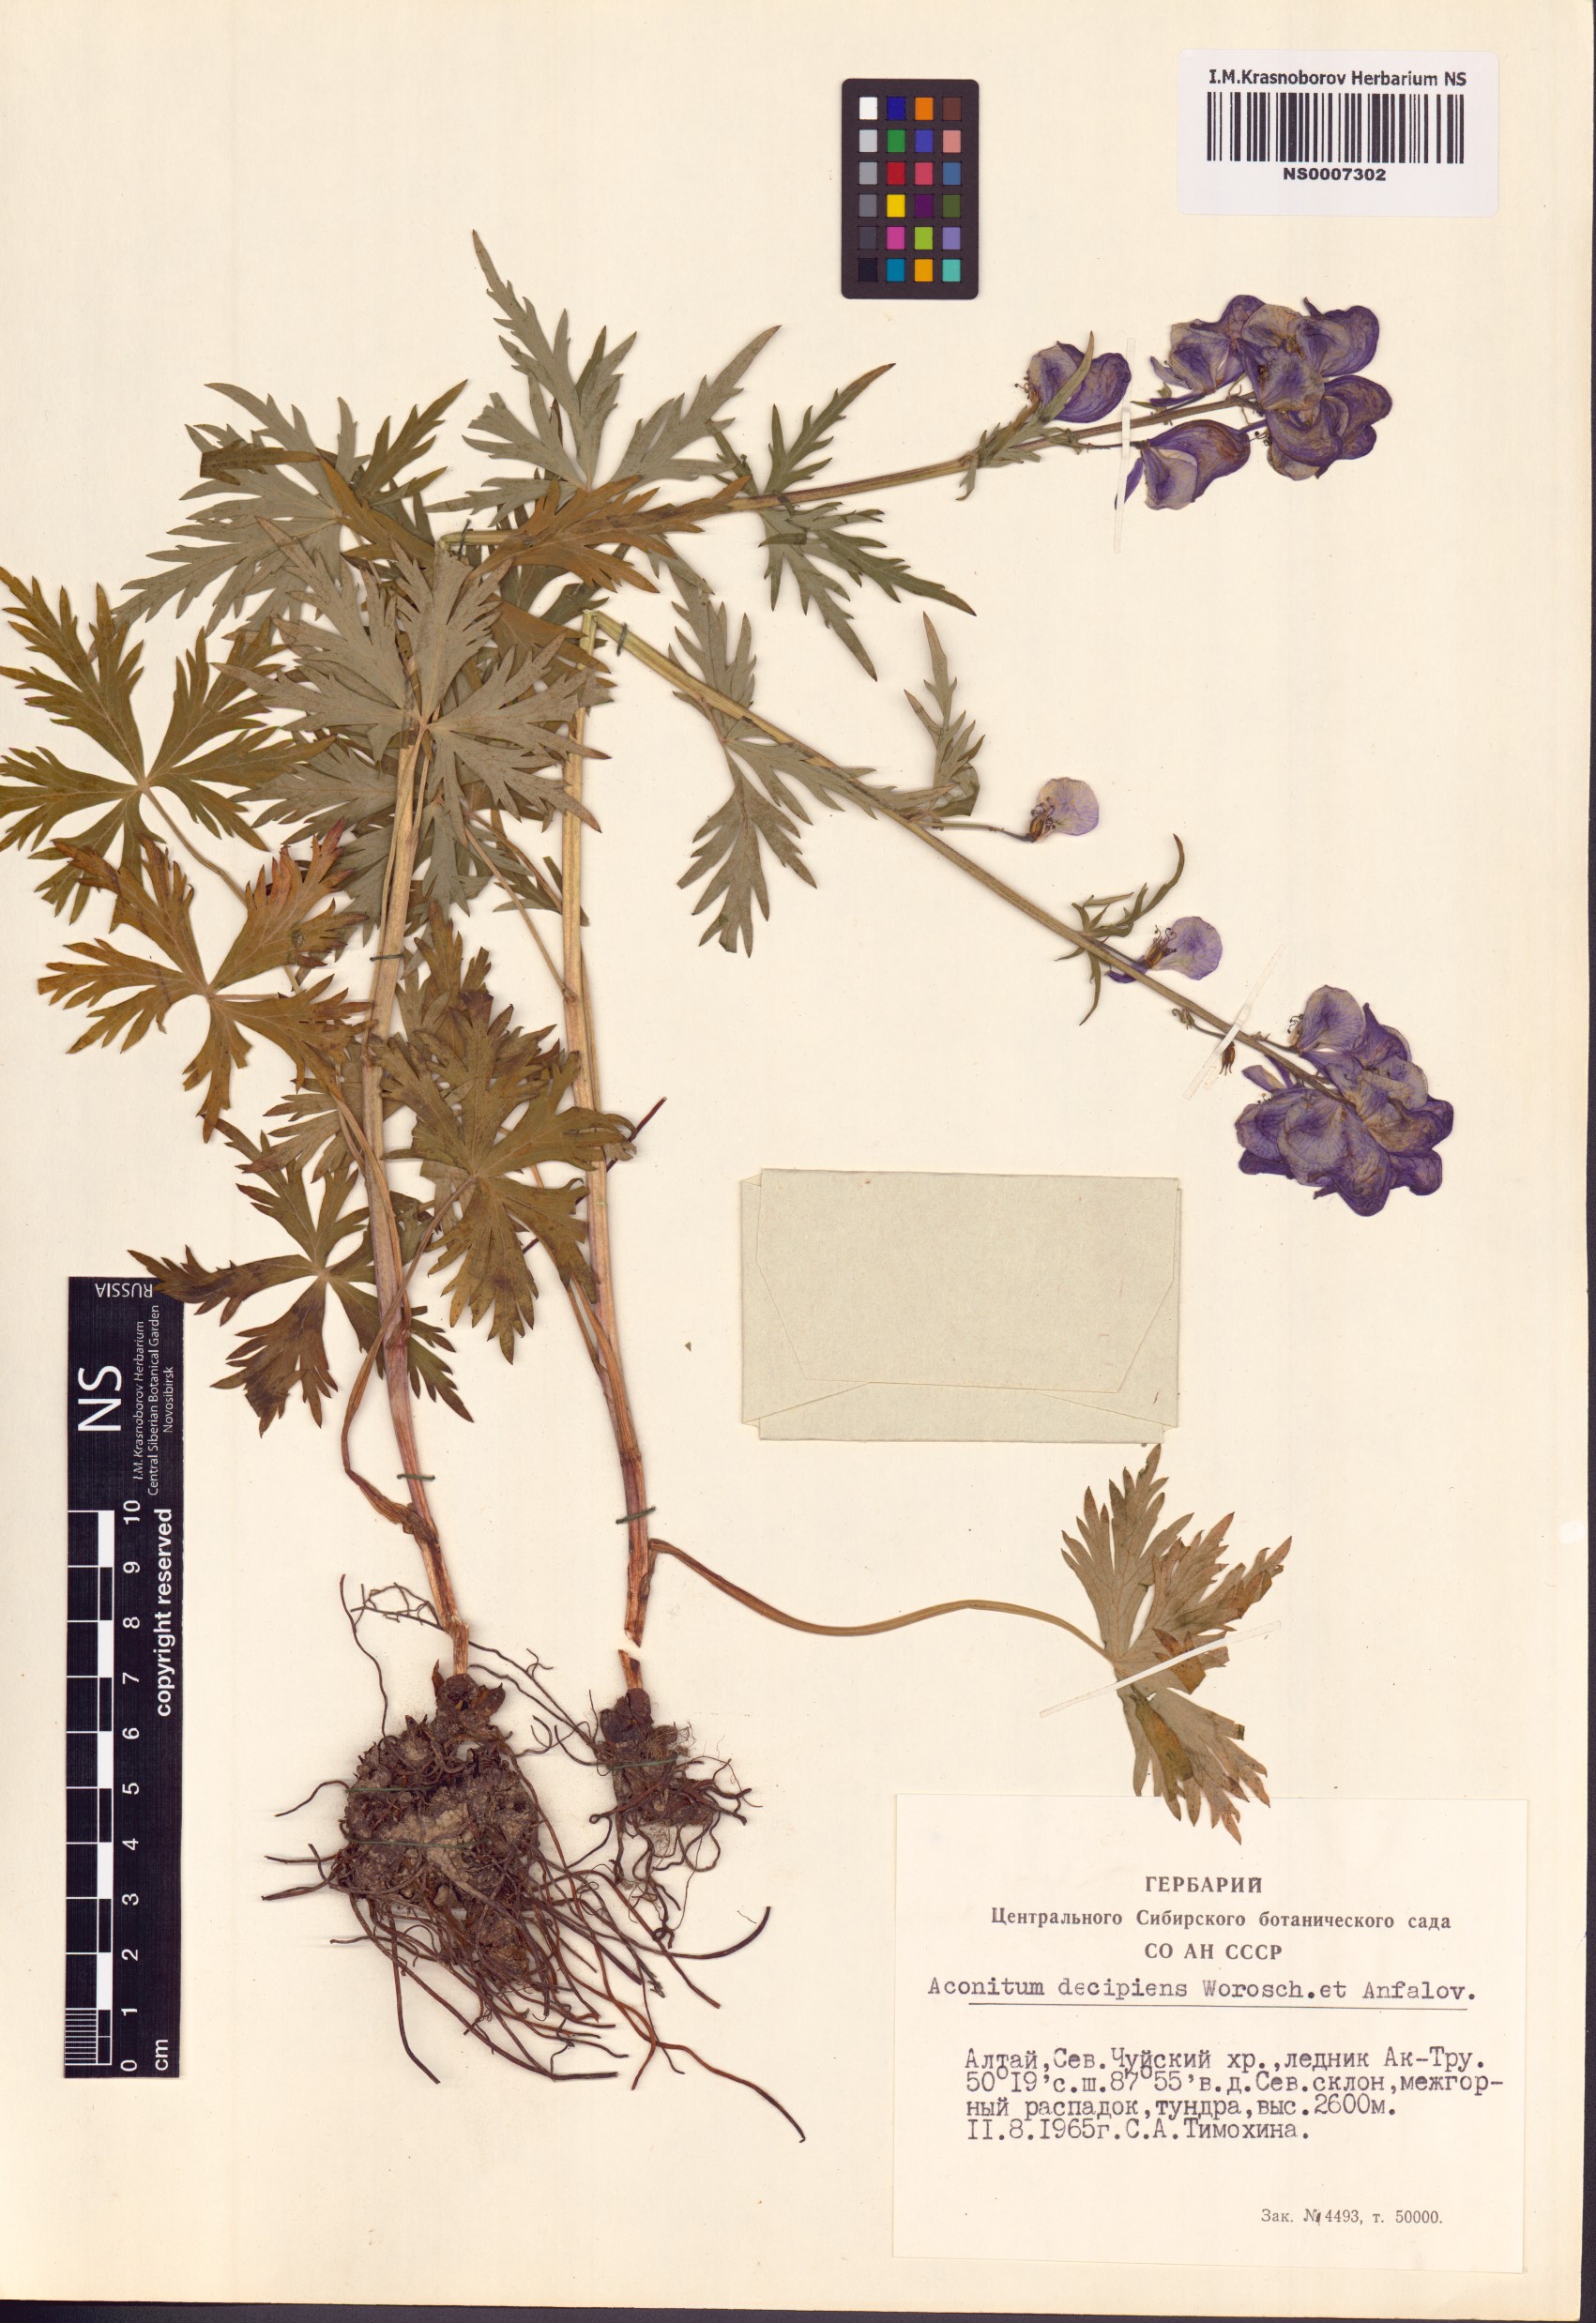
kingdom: Plantae
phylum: Tracheophyta
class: Magnoliopsida
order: Ranunculales
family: Ranunculaceae
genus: Aconitum
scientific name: Aconitum decipiens
